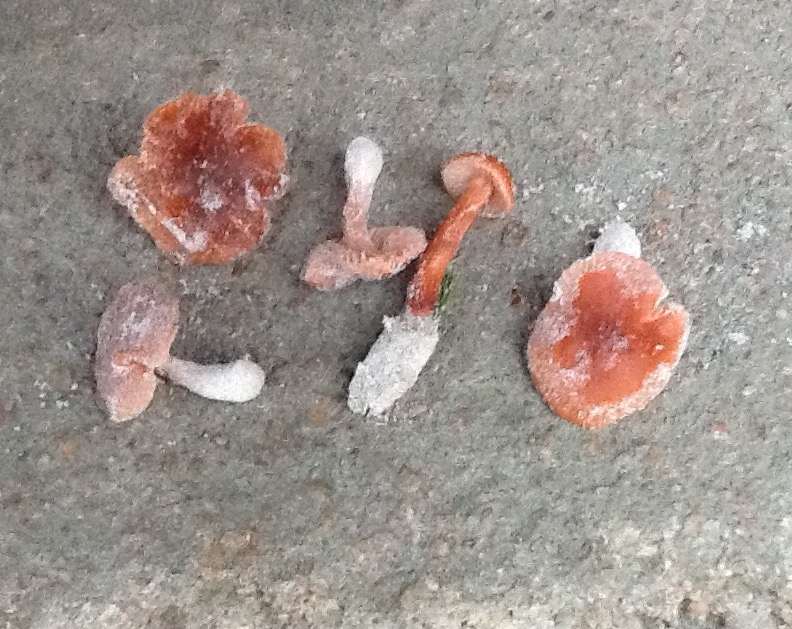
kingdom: Fungi
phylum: Basidiomycota
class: Agaricomycetes
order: Agaricales
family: Hydnangiaceae
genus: Laccaria
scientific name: Laccaria maritima
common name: klit-ametysthat
